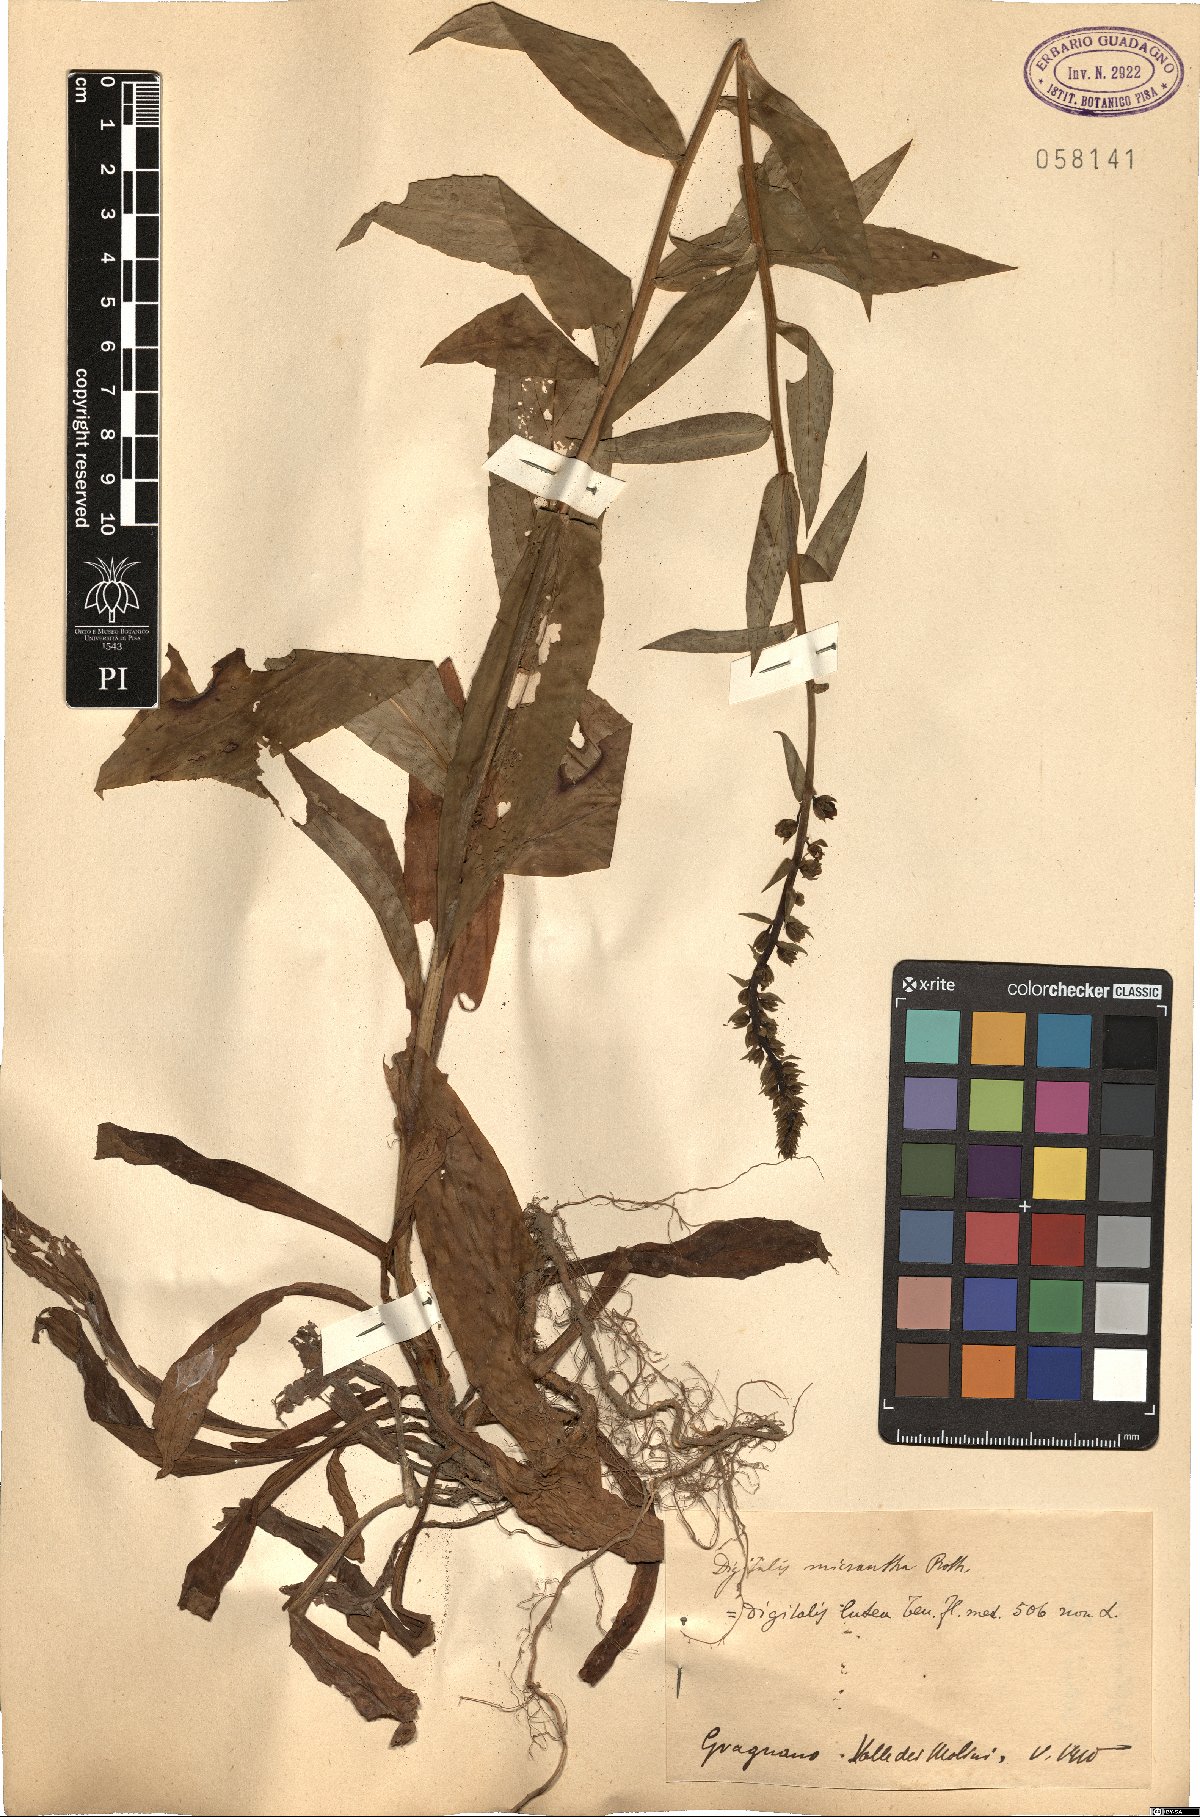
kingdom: Plantae
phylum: Tracheophyta
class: Magnoliopsida
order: Lamiales
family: Plantaginaceae
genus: Digitalis
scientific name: Digitalis lutea
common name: Straw foxglove
